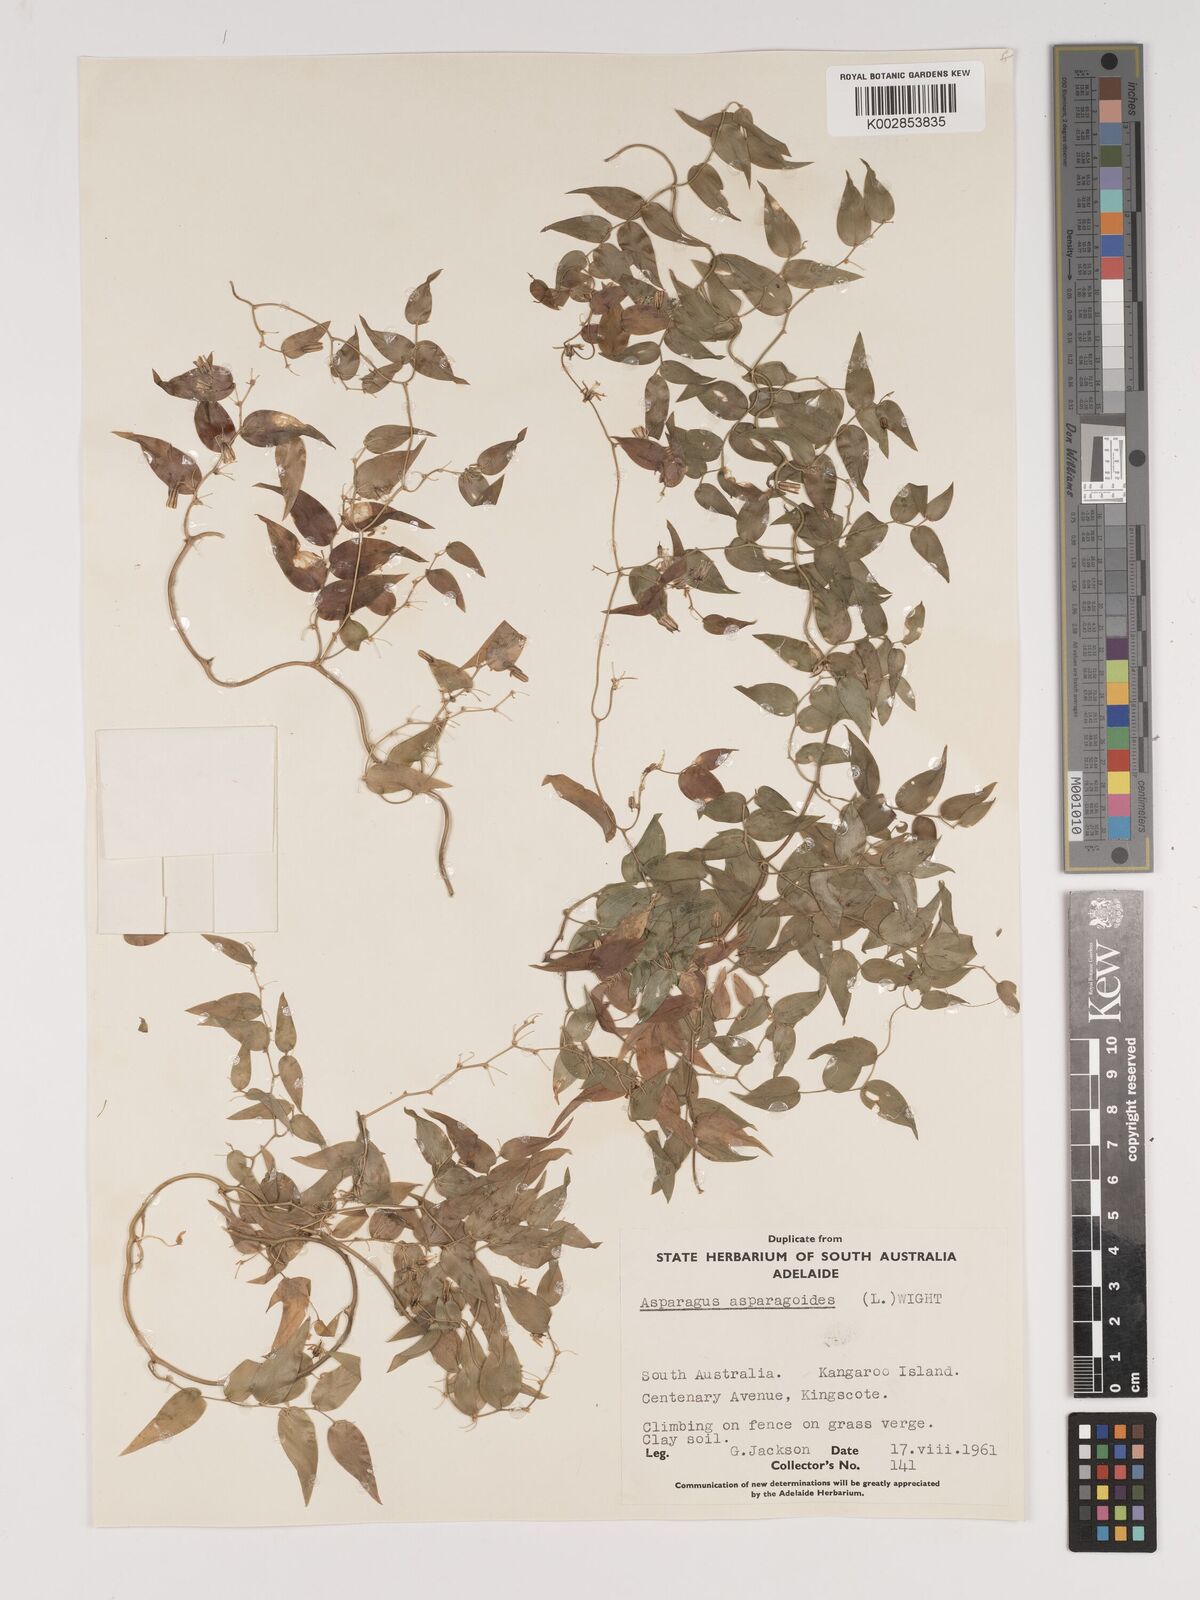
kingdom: Plantae
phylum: Tracheophyta
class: Liliopsida
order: Asparagales
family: Asparagaceae
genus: Asparagus
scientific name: Asparagus asparagoides
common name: African asparagus fern
